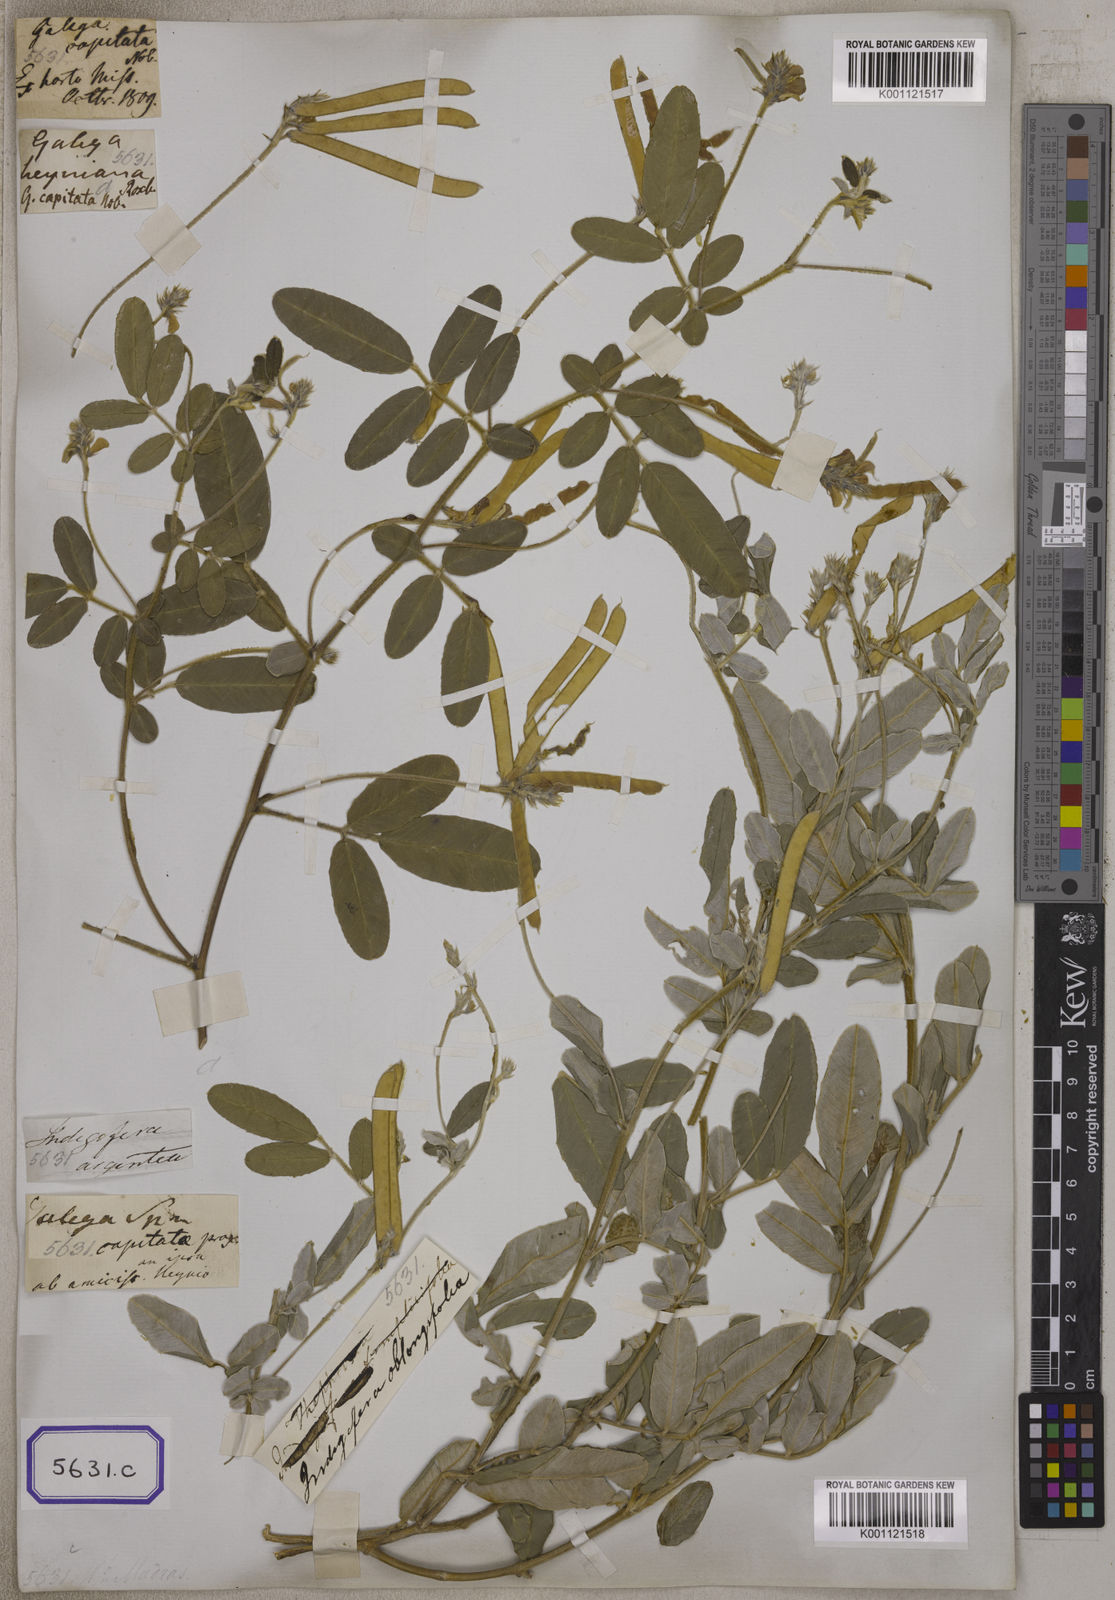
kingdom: Plantae
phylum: Tracheophyta
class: Magnoliopsida
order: Fabales
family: Fabaceae
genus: Tephrosia
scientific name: Tephrosia
